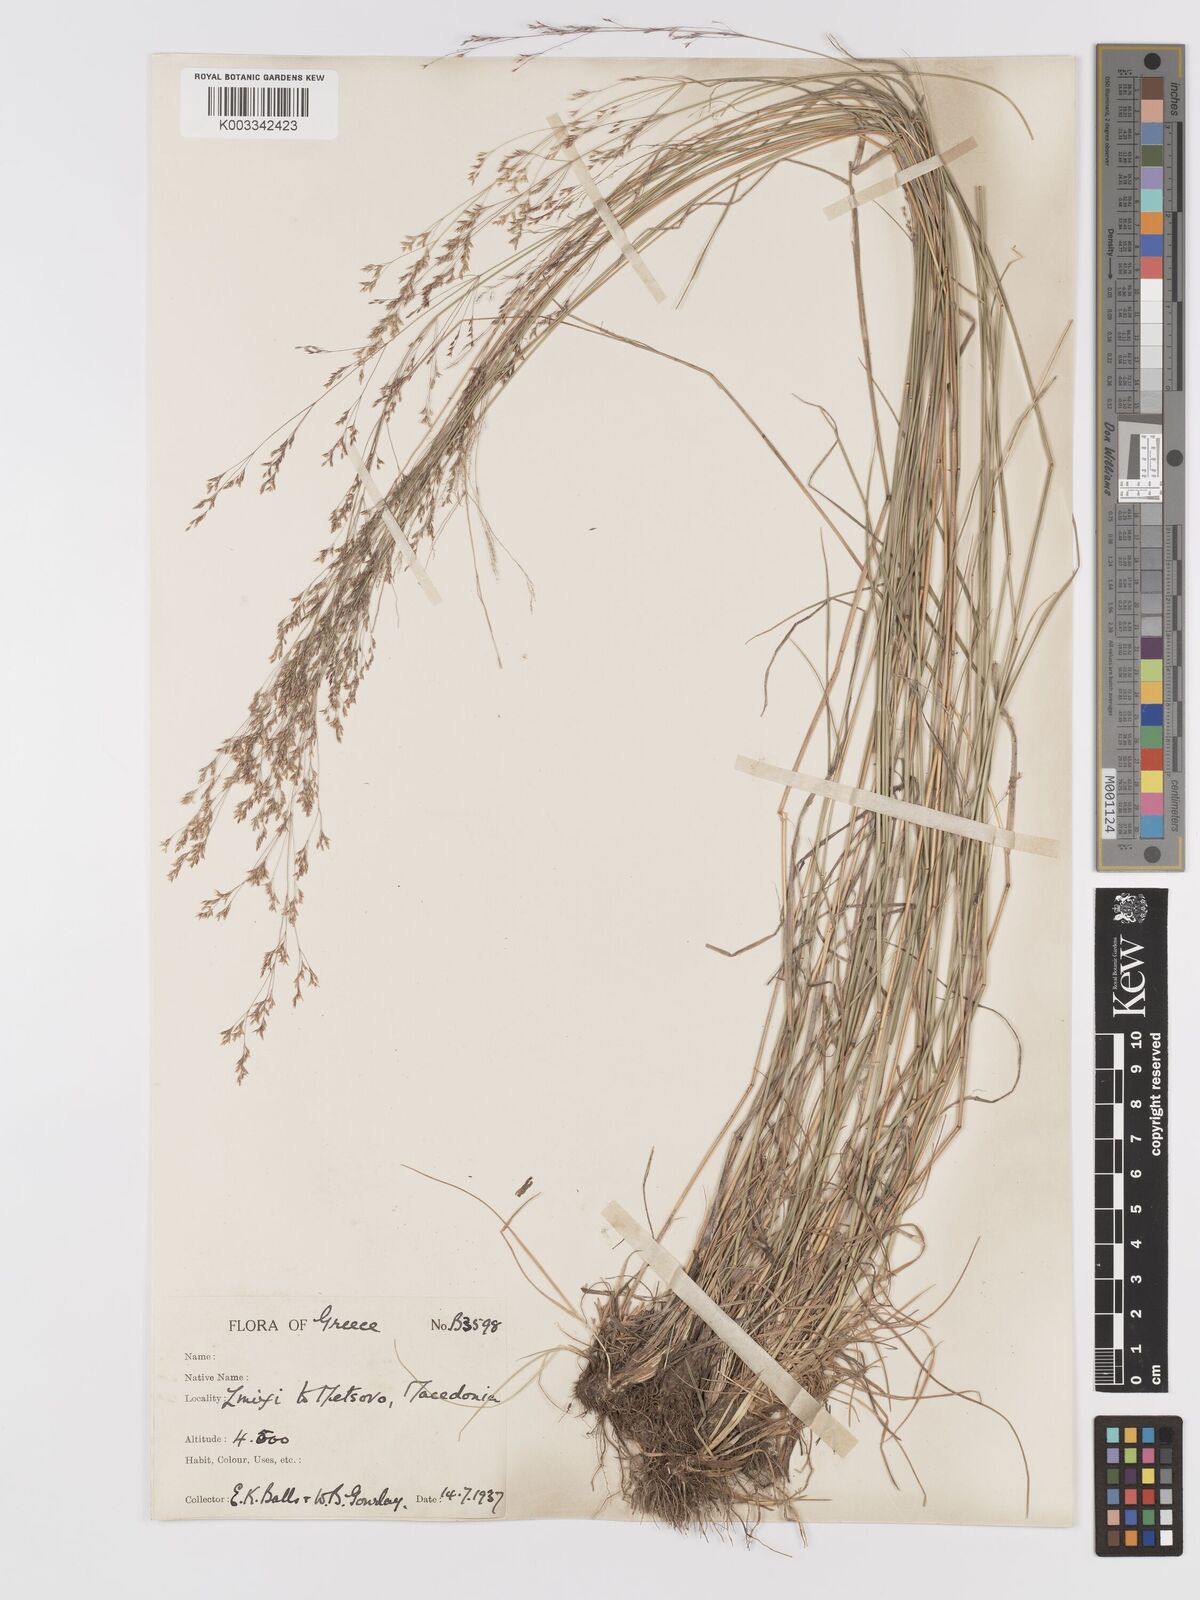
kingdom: Plantae
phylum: Tracheophyta
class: Liliopsida
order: Poales
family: Poaceae
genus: Agrostis
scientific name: Agrostis castellana
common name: Highland bent
